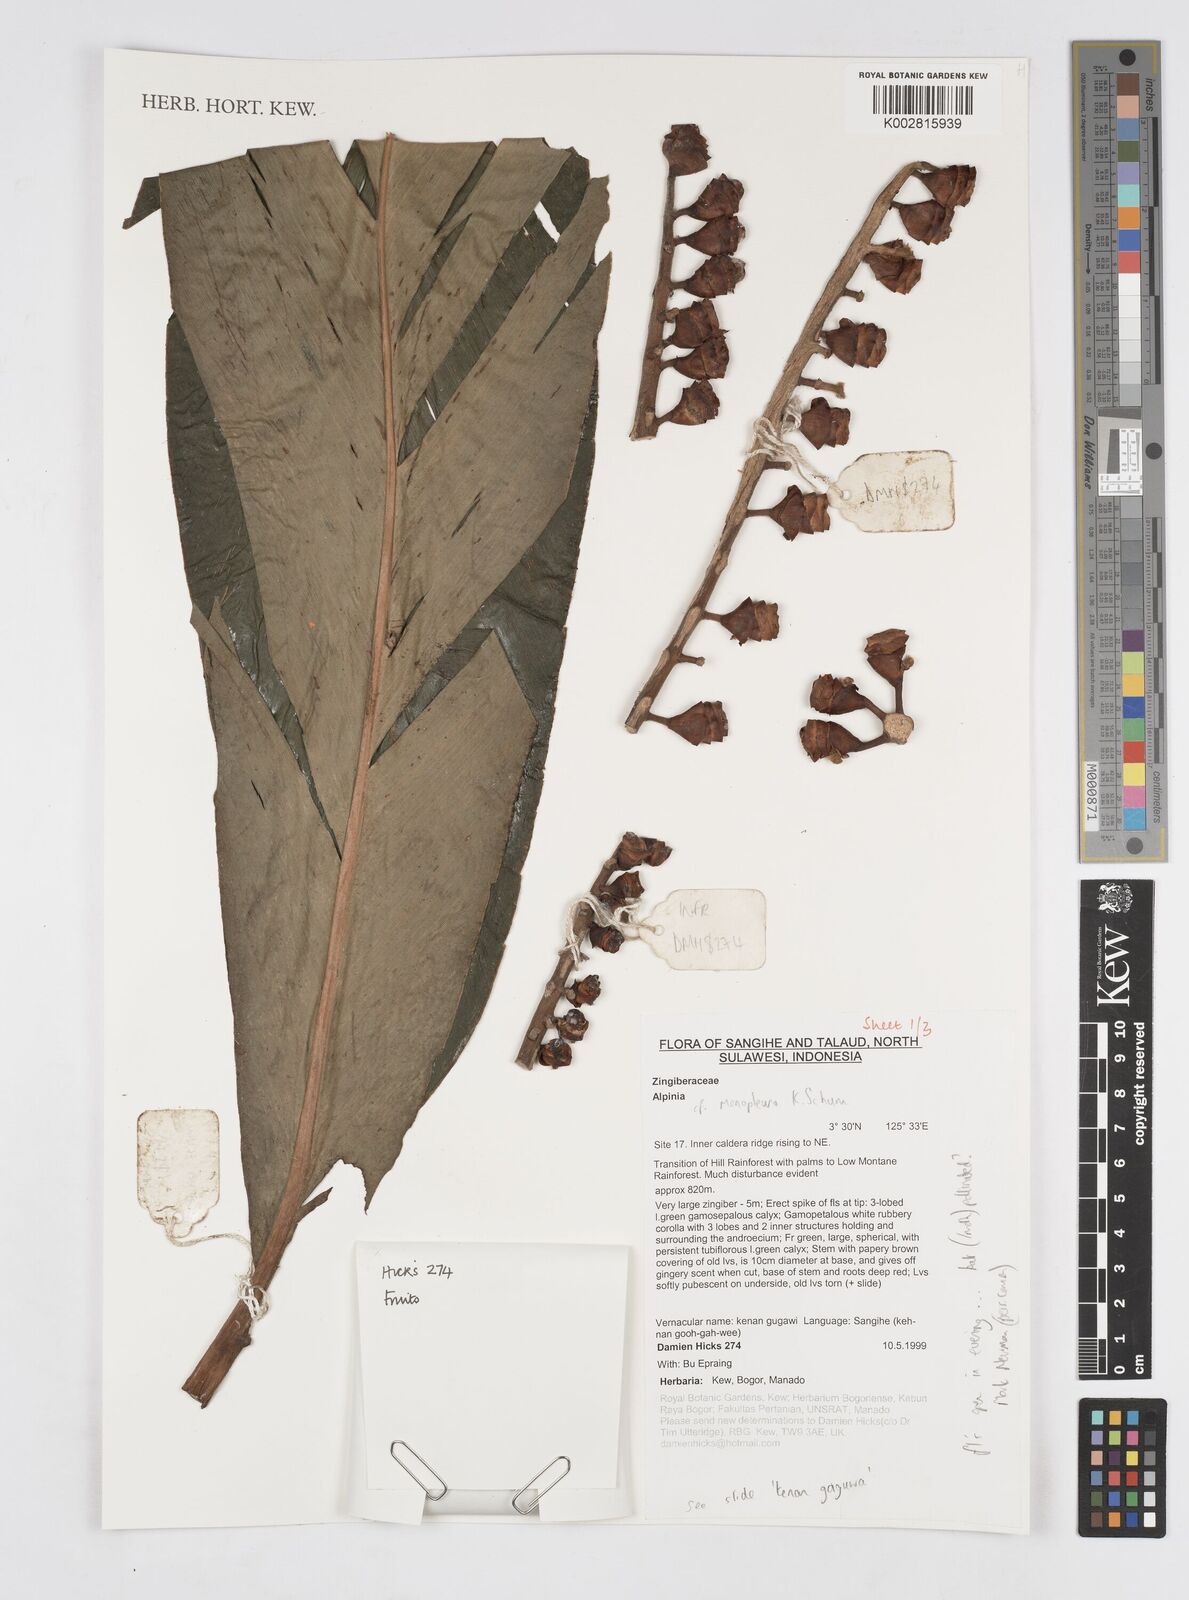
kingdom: Plantae
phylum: Tracheophyta
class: Liliopsida
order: Zingiberales
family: Zingiberaceae
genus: Alpinia
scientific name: Alpinia monopleura
